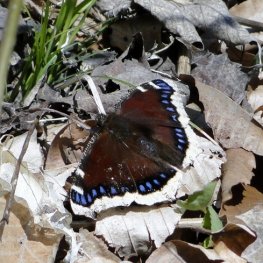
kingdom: Animalia
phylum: Arthropoda
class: Insecta
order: Lepidoptera
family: Nymphalidae
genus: Nymphalis
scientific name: Nymphalis antiopa
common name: Mourning Cloak
